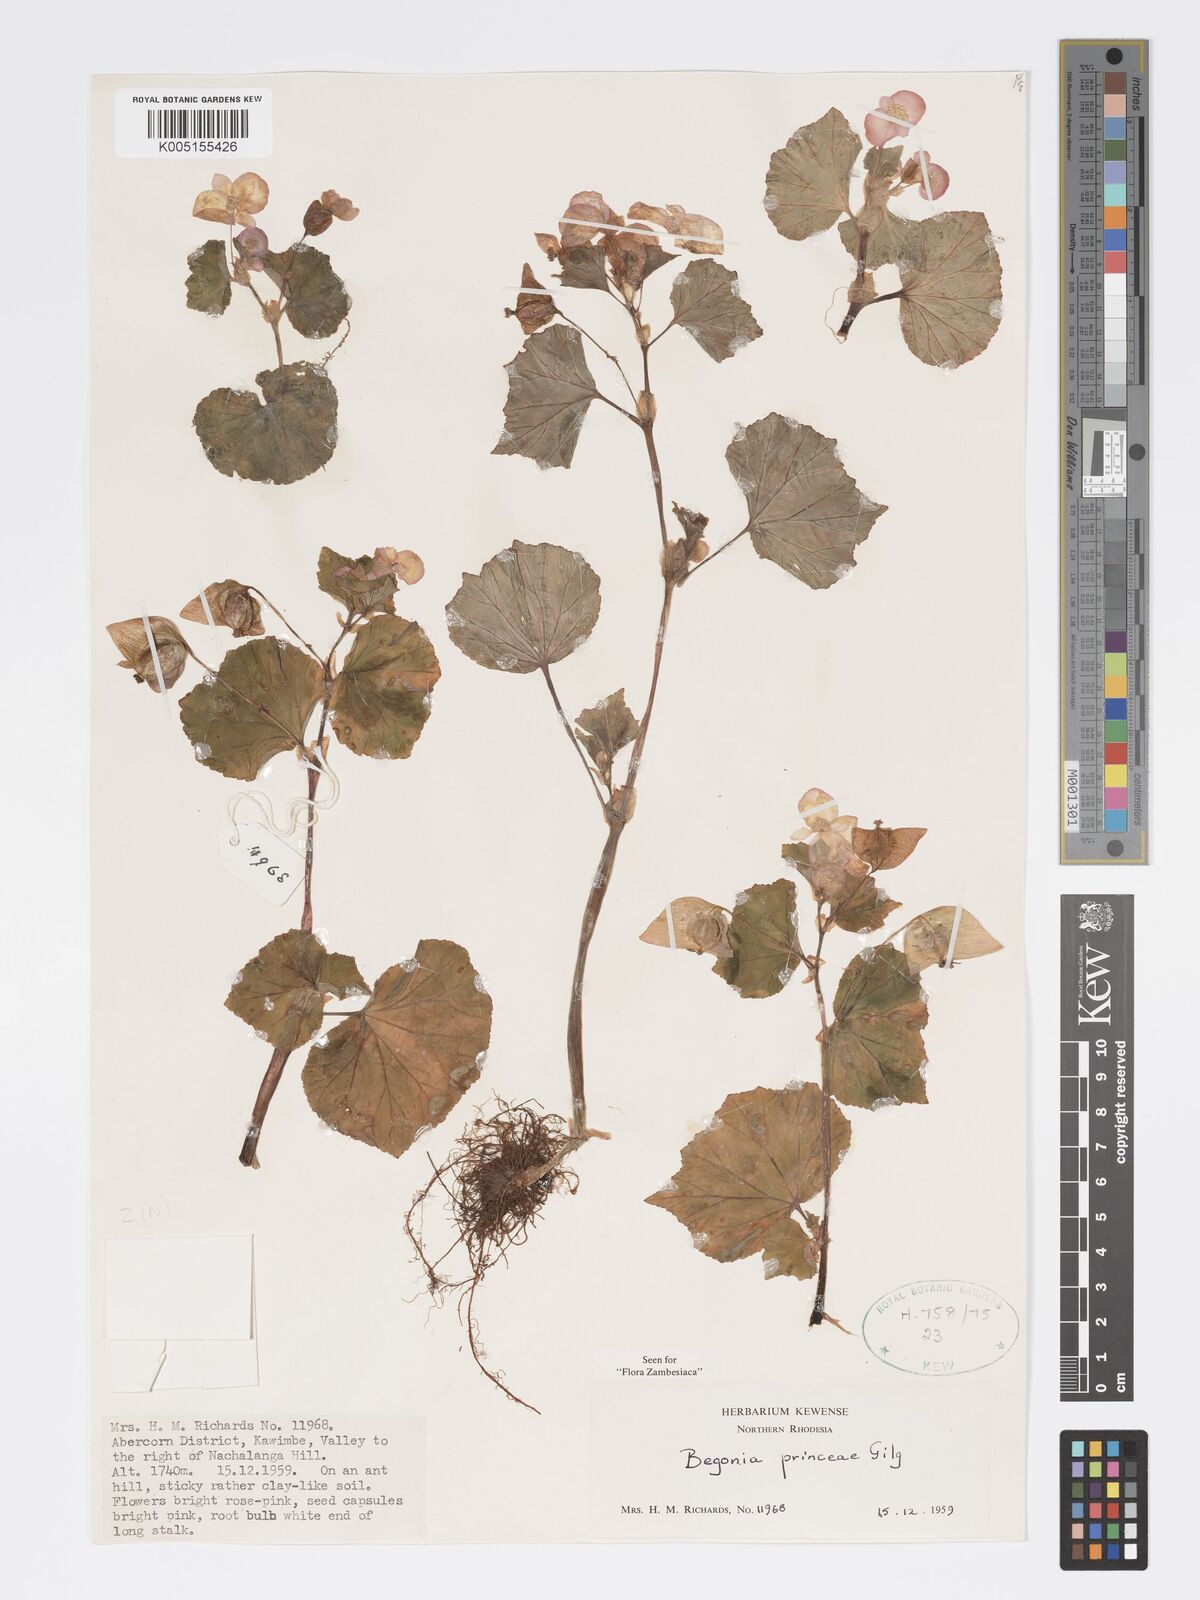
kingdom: Plantae
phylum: Tracheophyta
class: Magnoliopsida
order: Cucurbitales
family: Begoniaceae
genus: Begonia
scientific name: Begonia princeae
